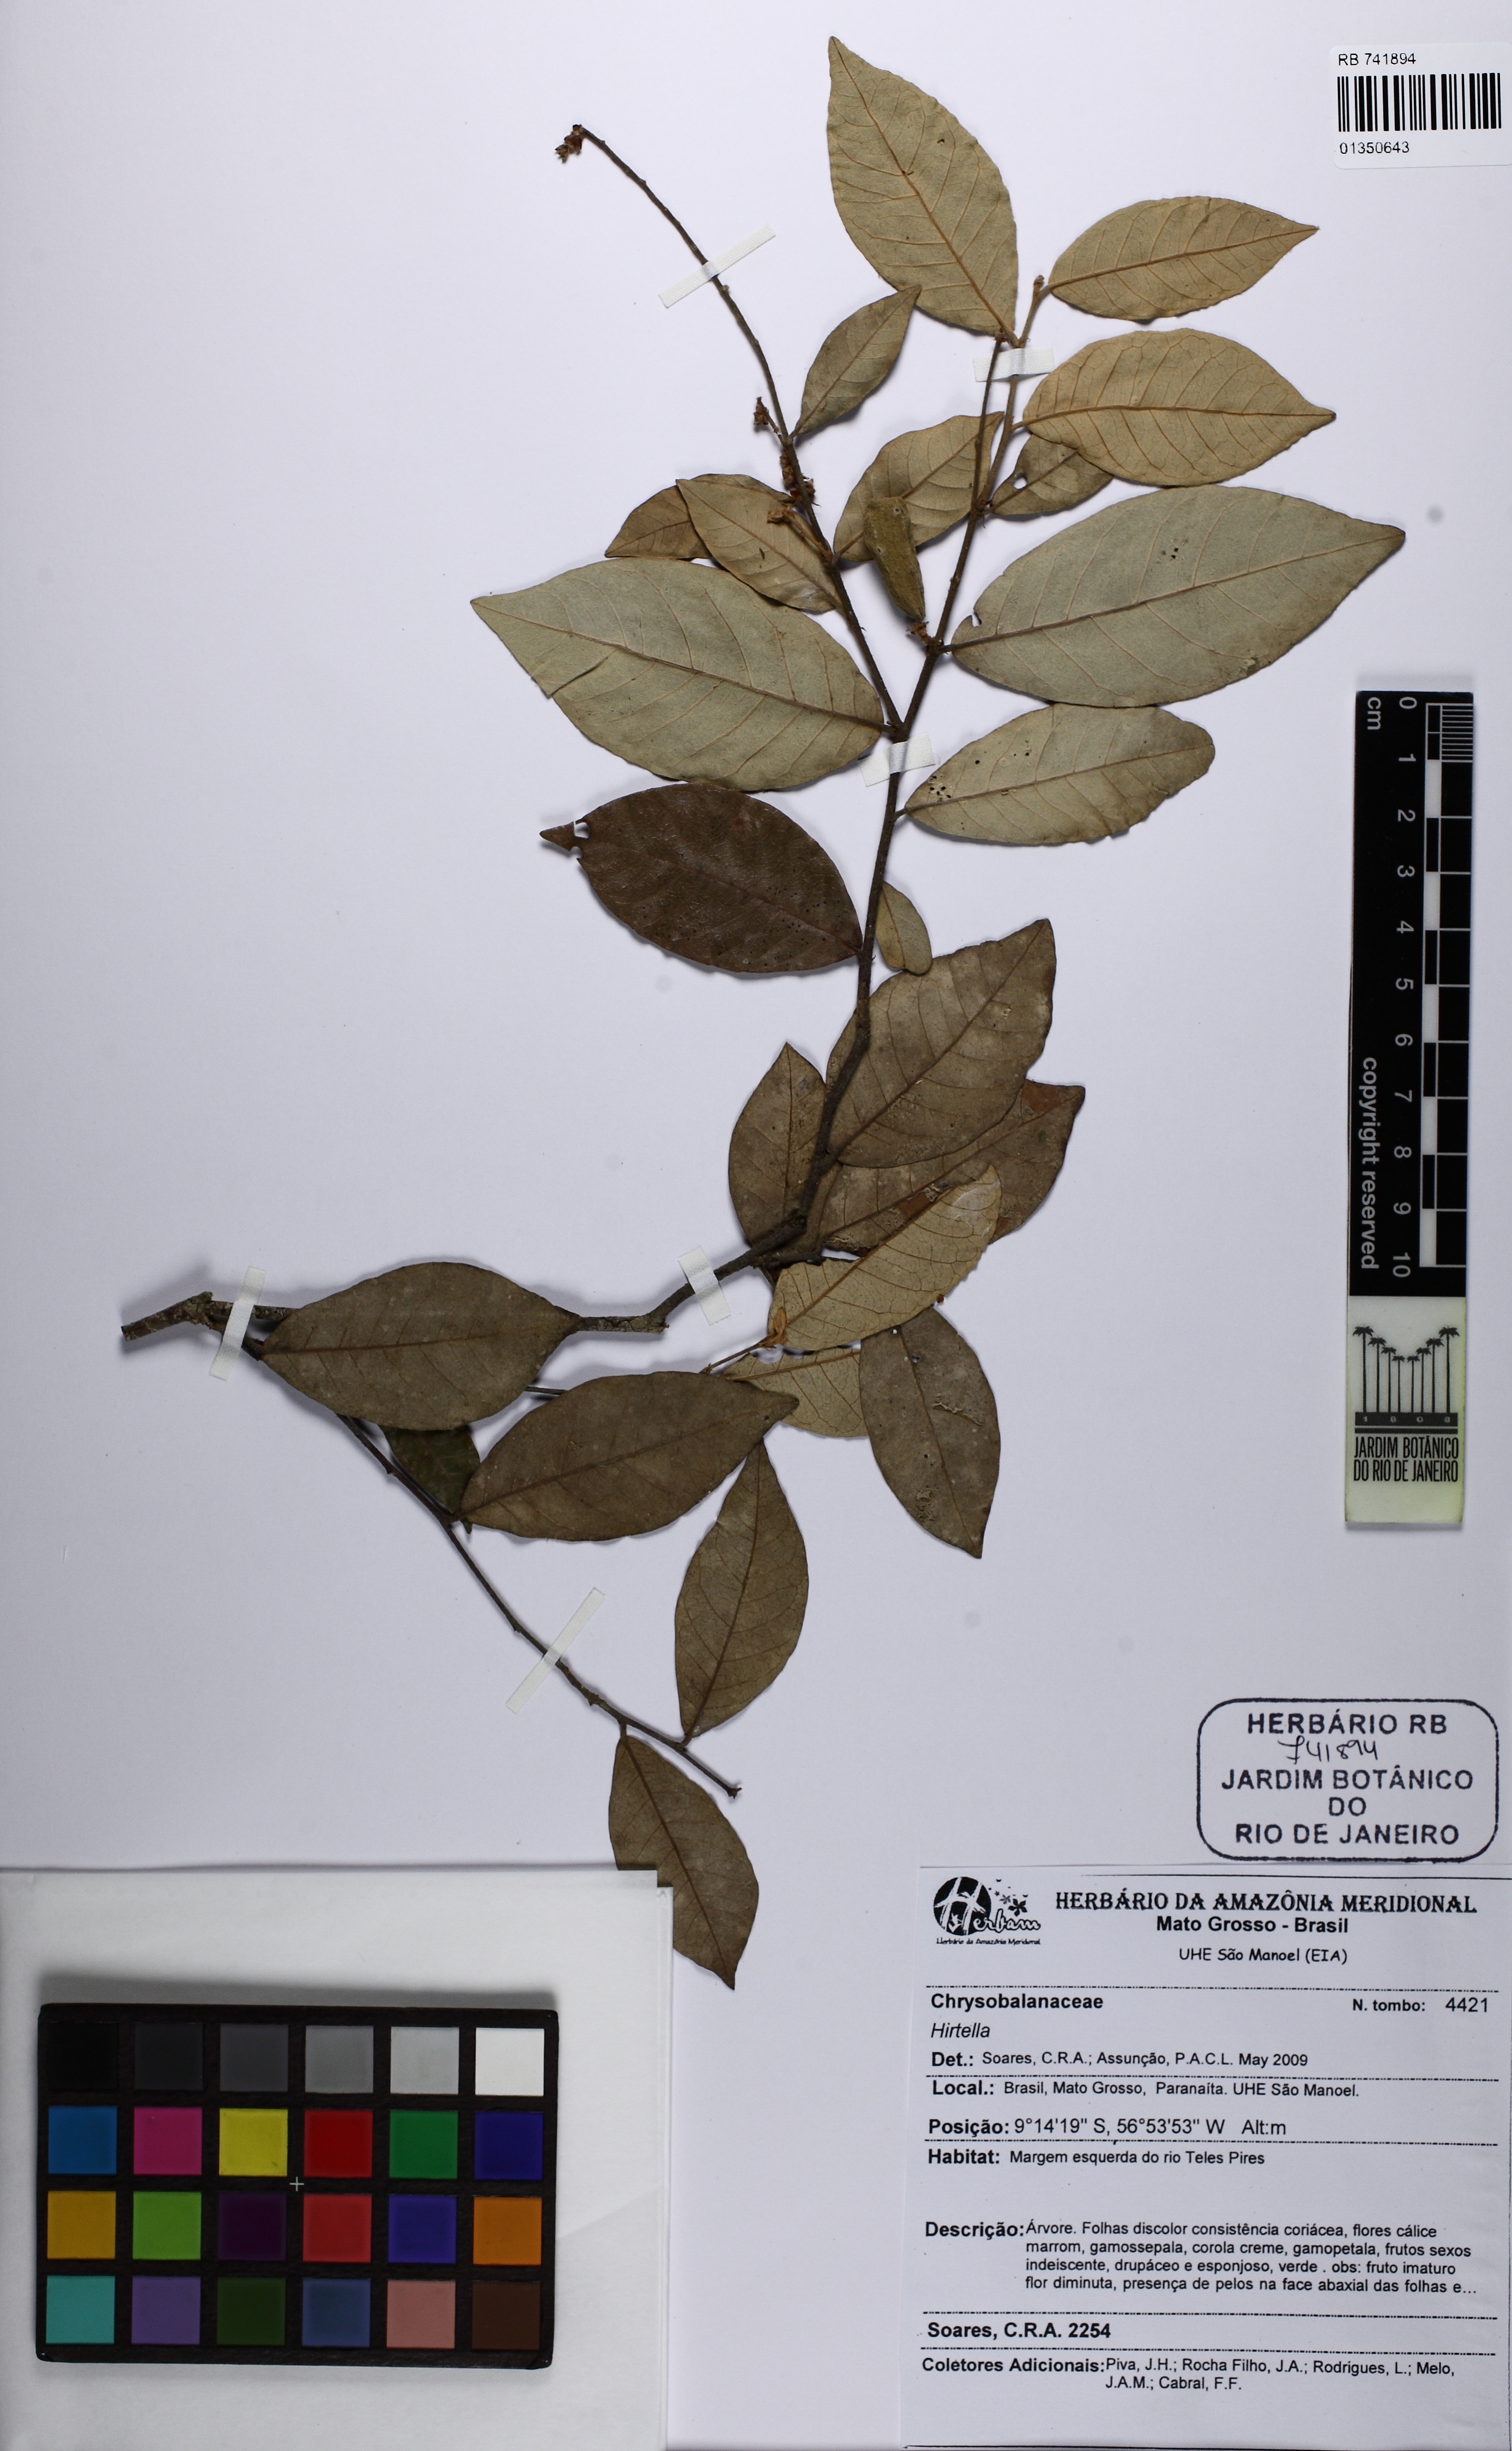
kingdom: Plantae
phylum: Tracheophyta
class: Magnoliopsida
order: Malpighiales
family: Chrysobalanaceae
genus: Hirtella
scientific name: Hirtella
